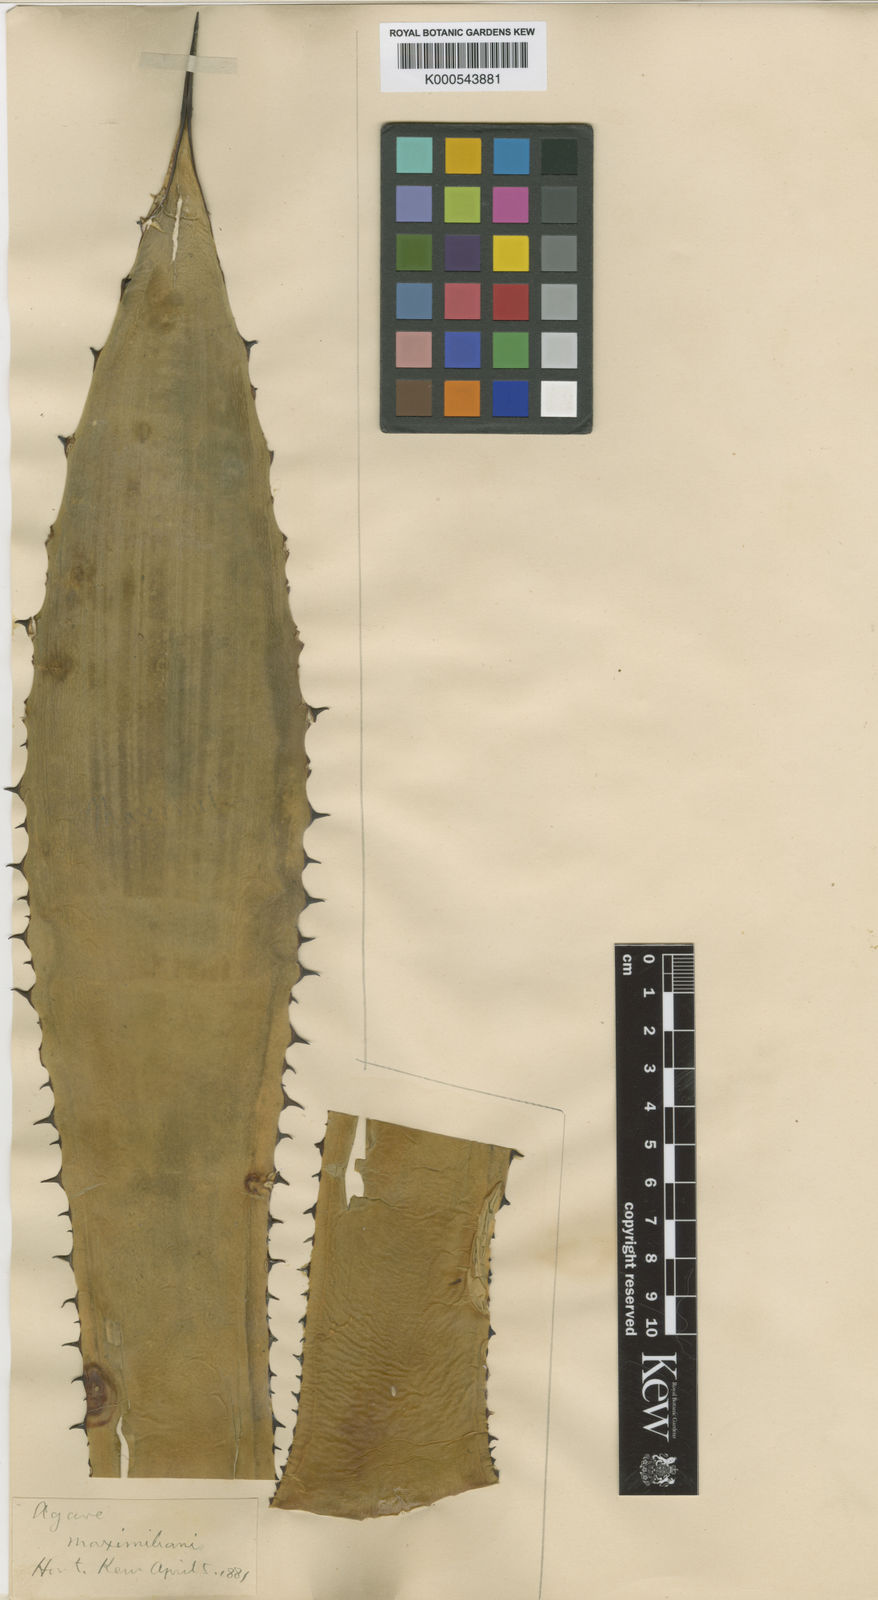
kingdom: Plantae
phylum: Tracheophyta
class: Liliopsida
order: Asparagales
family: Asparagaceae
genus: Agave
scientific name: Agave maximiliana
